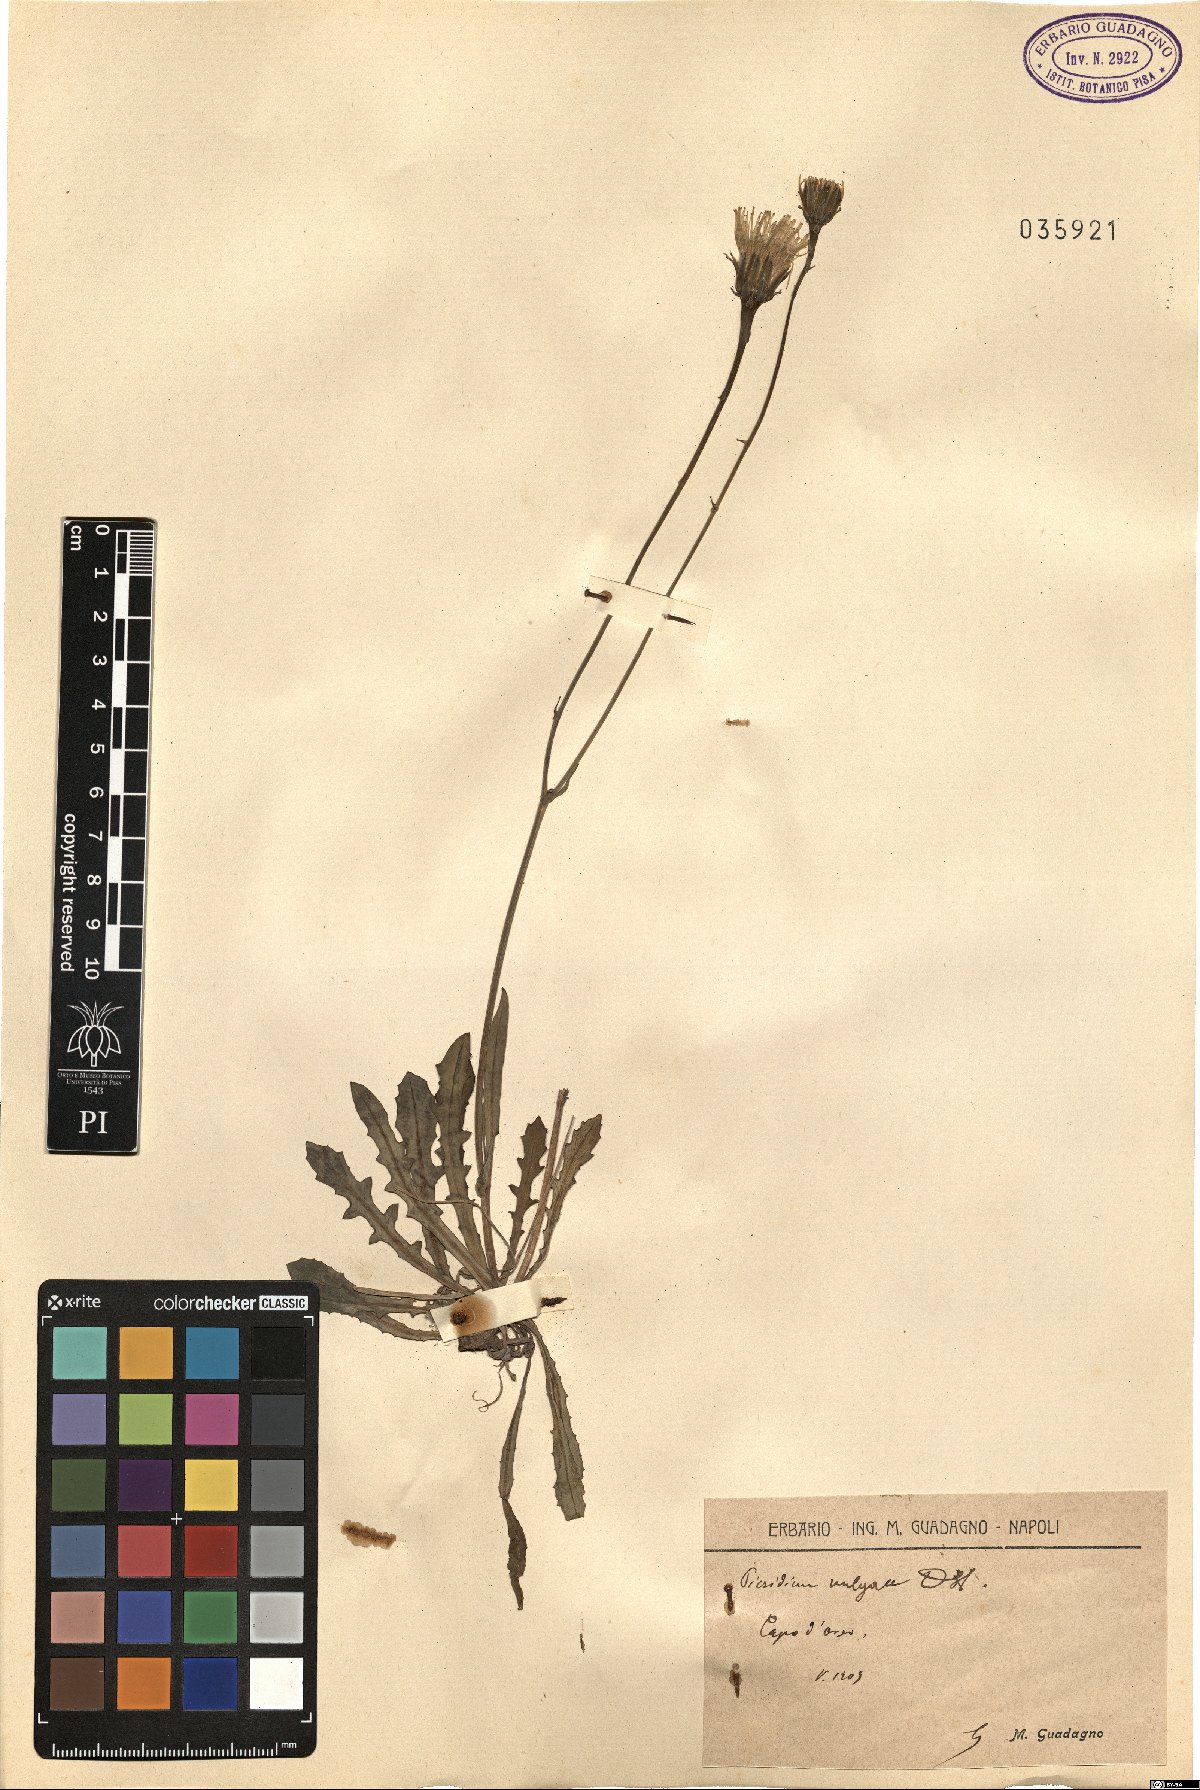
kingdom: Plantae
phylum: Tracheophyta
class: Magnoliopsida
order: Asterales
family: Asteraceae
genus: Reichardia
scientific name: Reichardia picroides
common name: Common brighteyes
